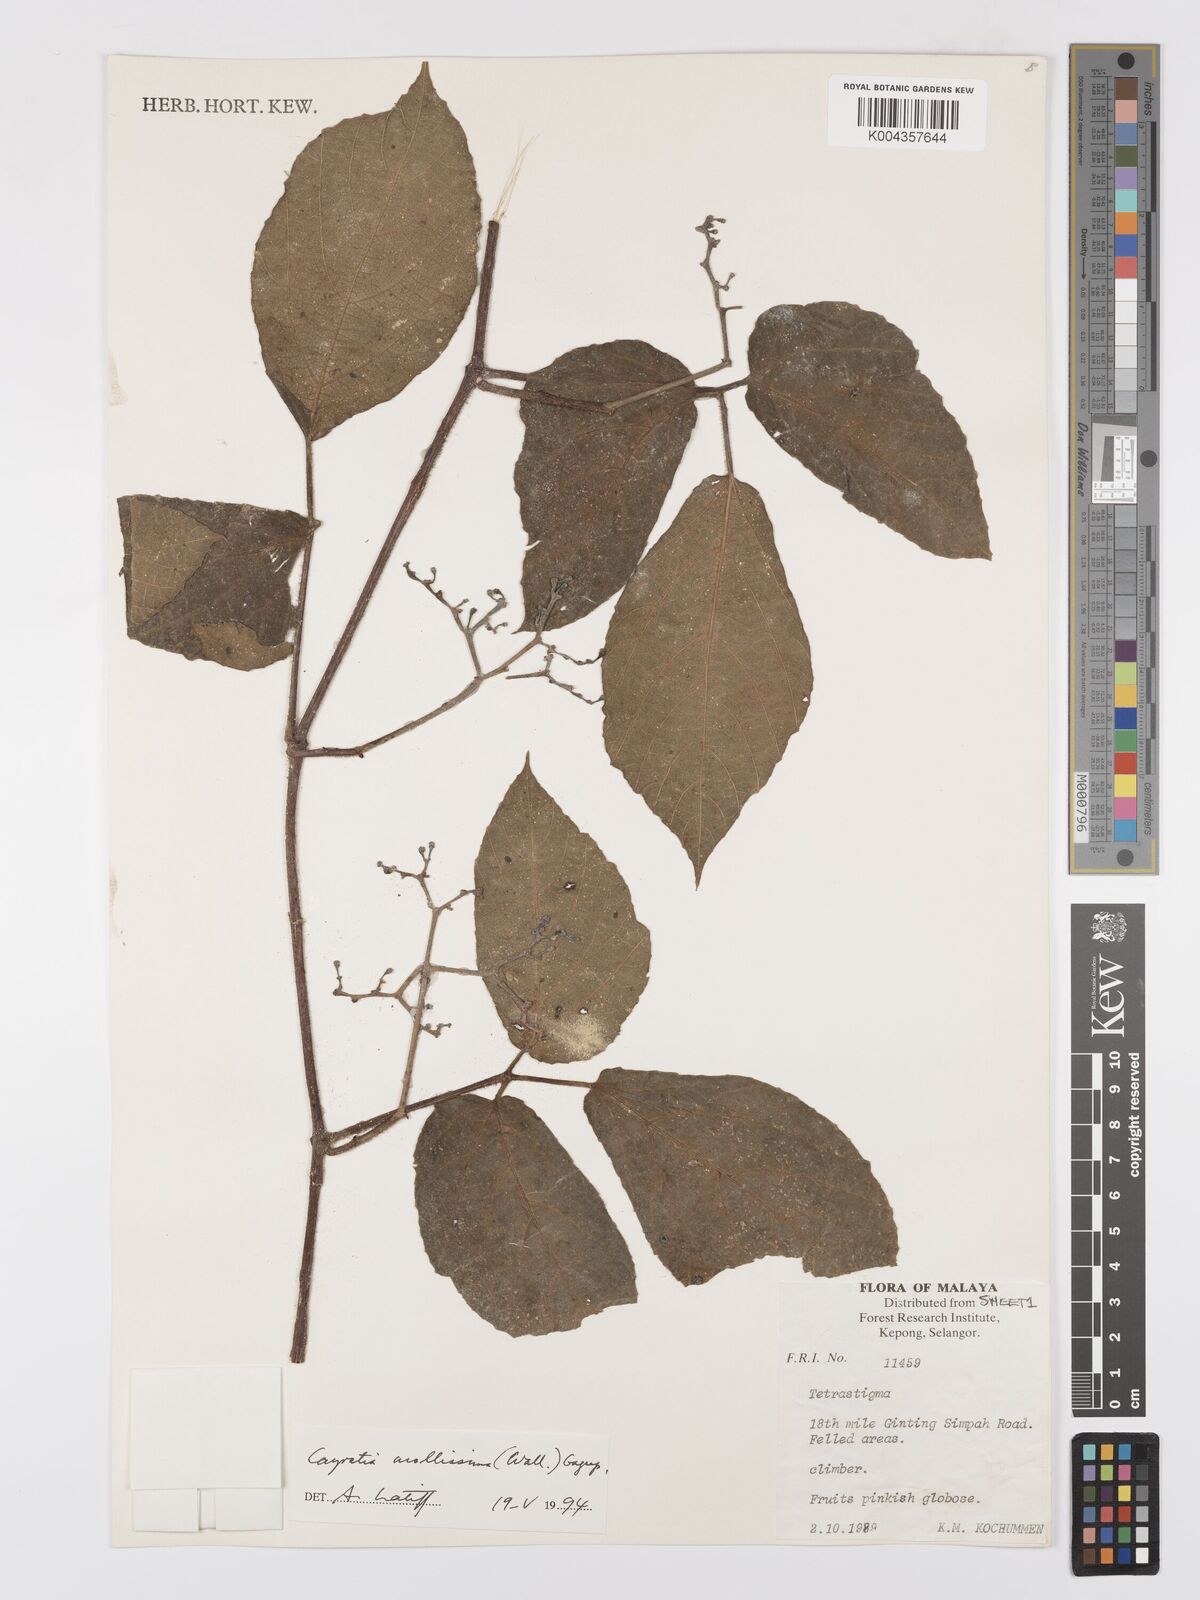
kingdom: Plantae
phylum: Tracheophyta
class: Magnoliopsida
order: Vitales
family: Vitaceae
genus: Cayratia
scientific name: Cayratia mollissima
